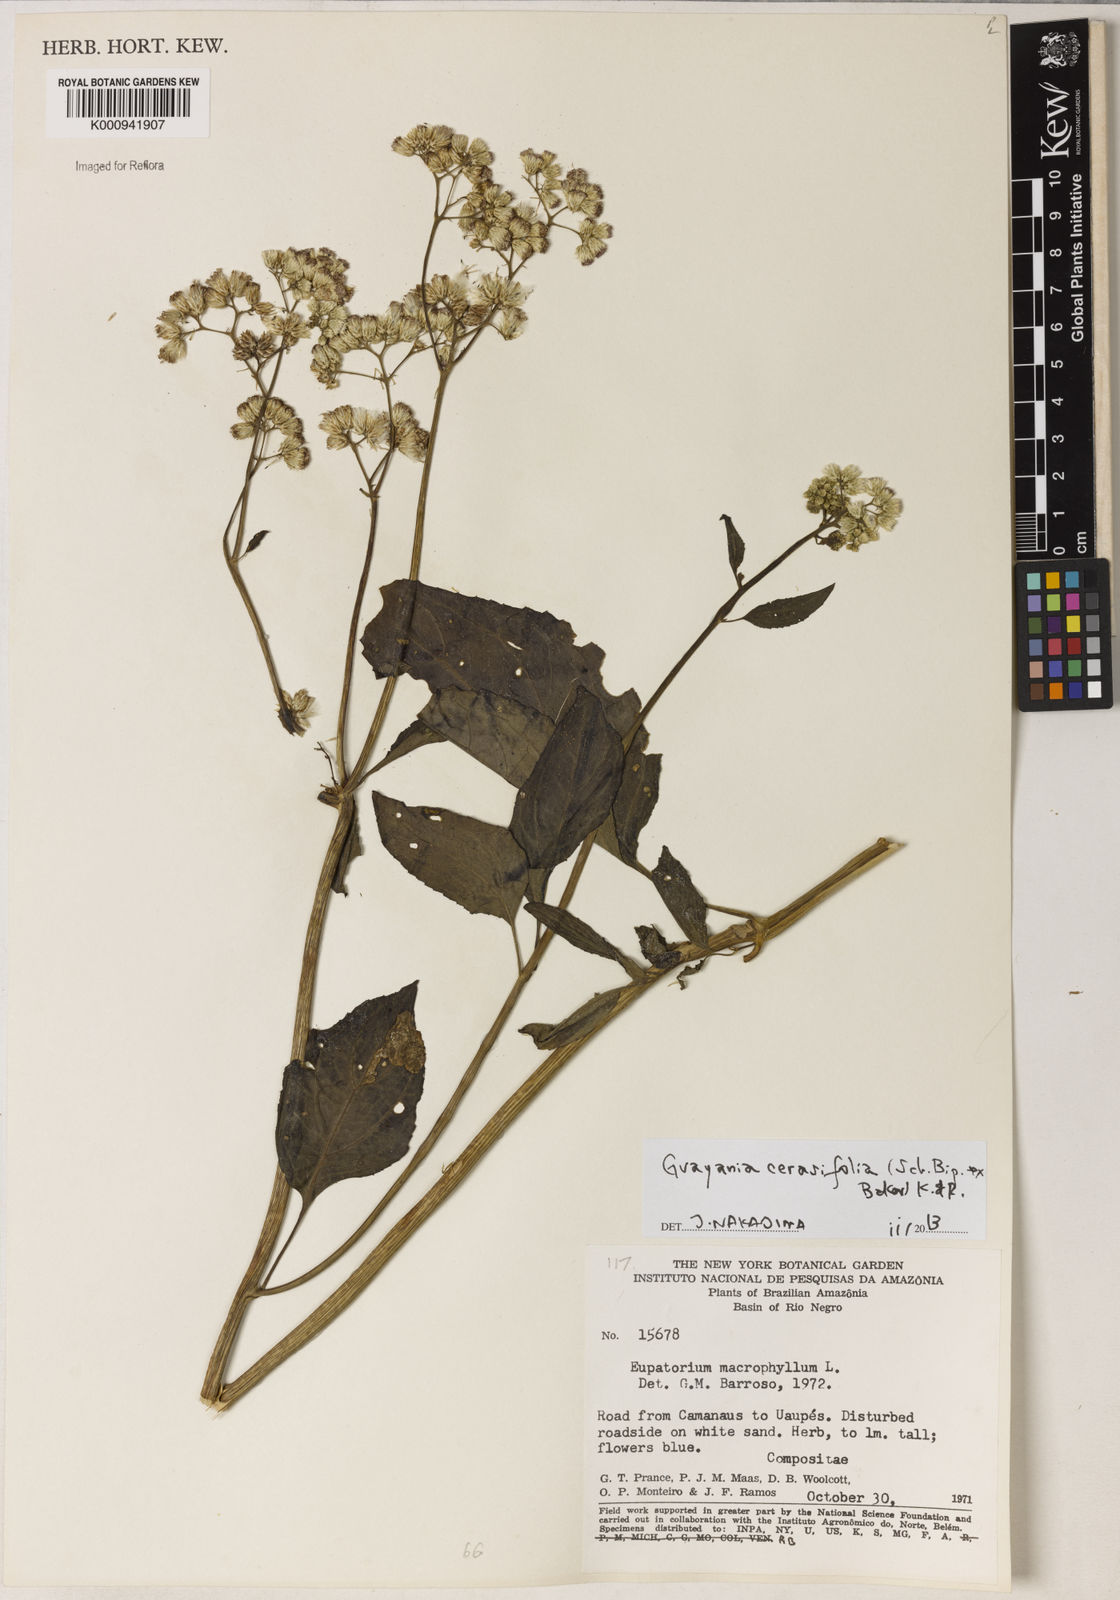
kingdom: Plantae
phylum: Tracheophyta
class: Magnoliopsida
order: Asterales
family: Asteraceae
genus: Guayania
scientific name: Guayania cerasifolia
